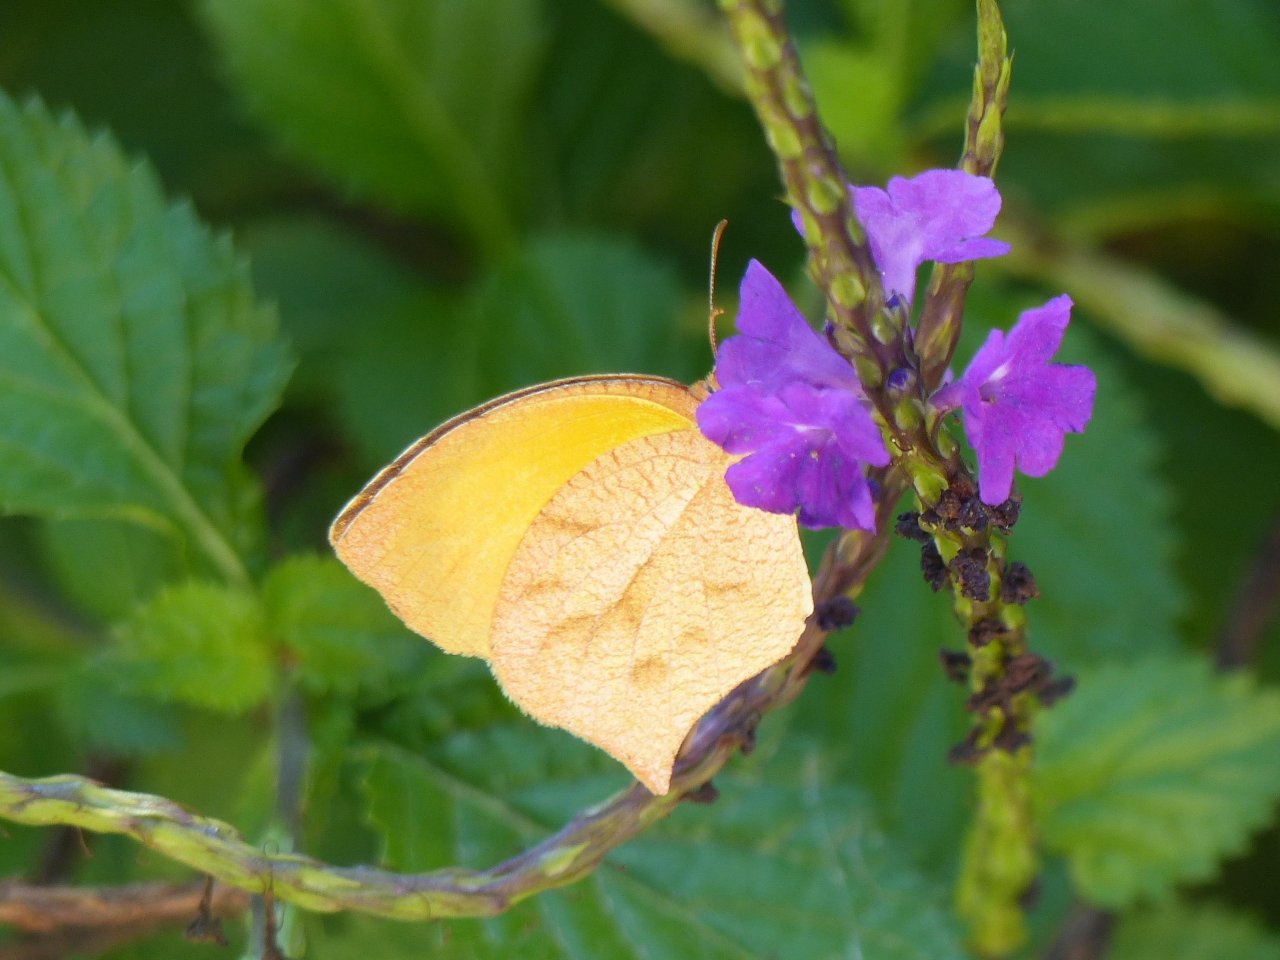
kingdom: Animalia
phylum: Arthropoda
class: Insecta
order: Lepidoptera
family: Pieridae
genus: Pyrisitia
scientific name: Pyrisitia proterpia
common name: Tailed Orange
